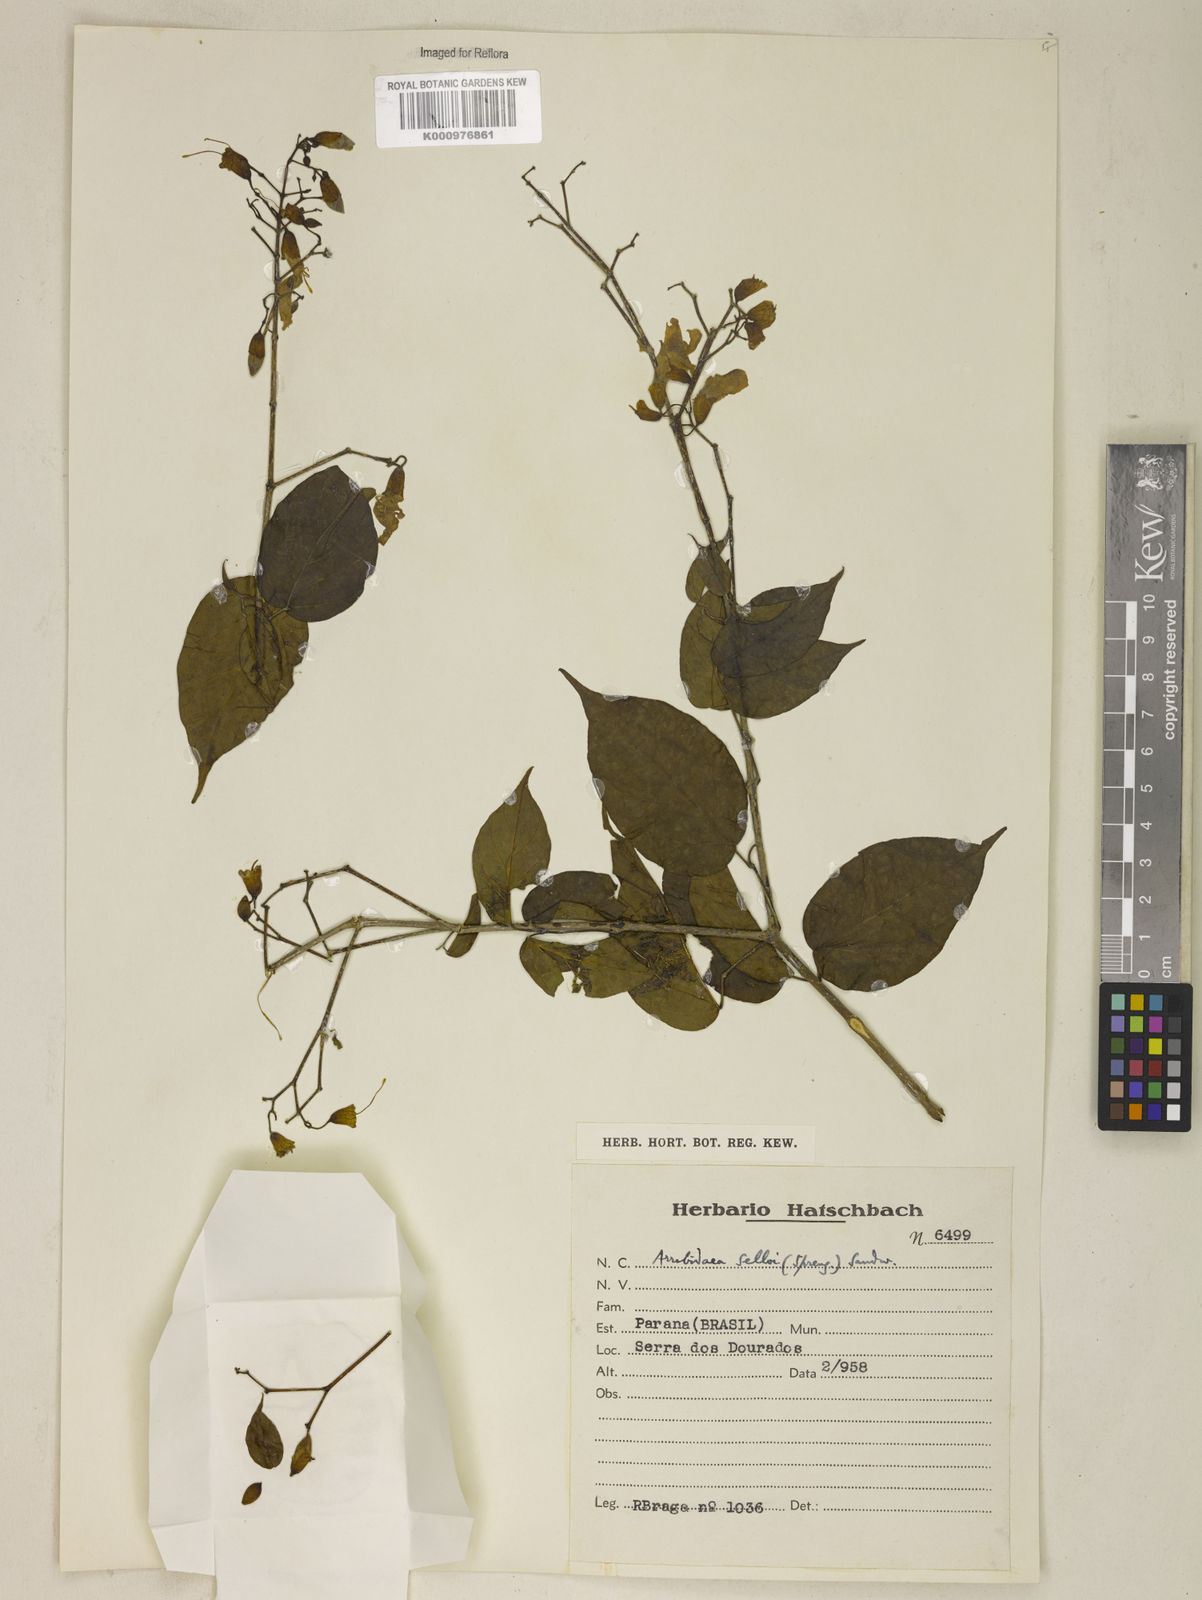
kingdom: Plantae
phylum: Tracheophyta
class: Magnoliopsida
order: Lamiales
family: Bignoniaceae
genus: Tanaecium
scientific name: Tanaecium selloi
